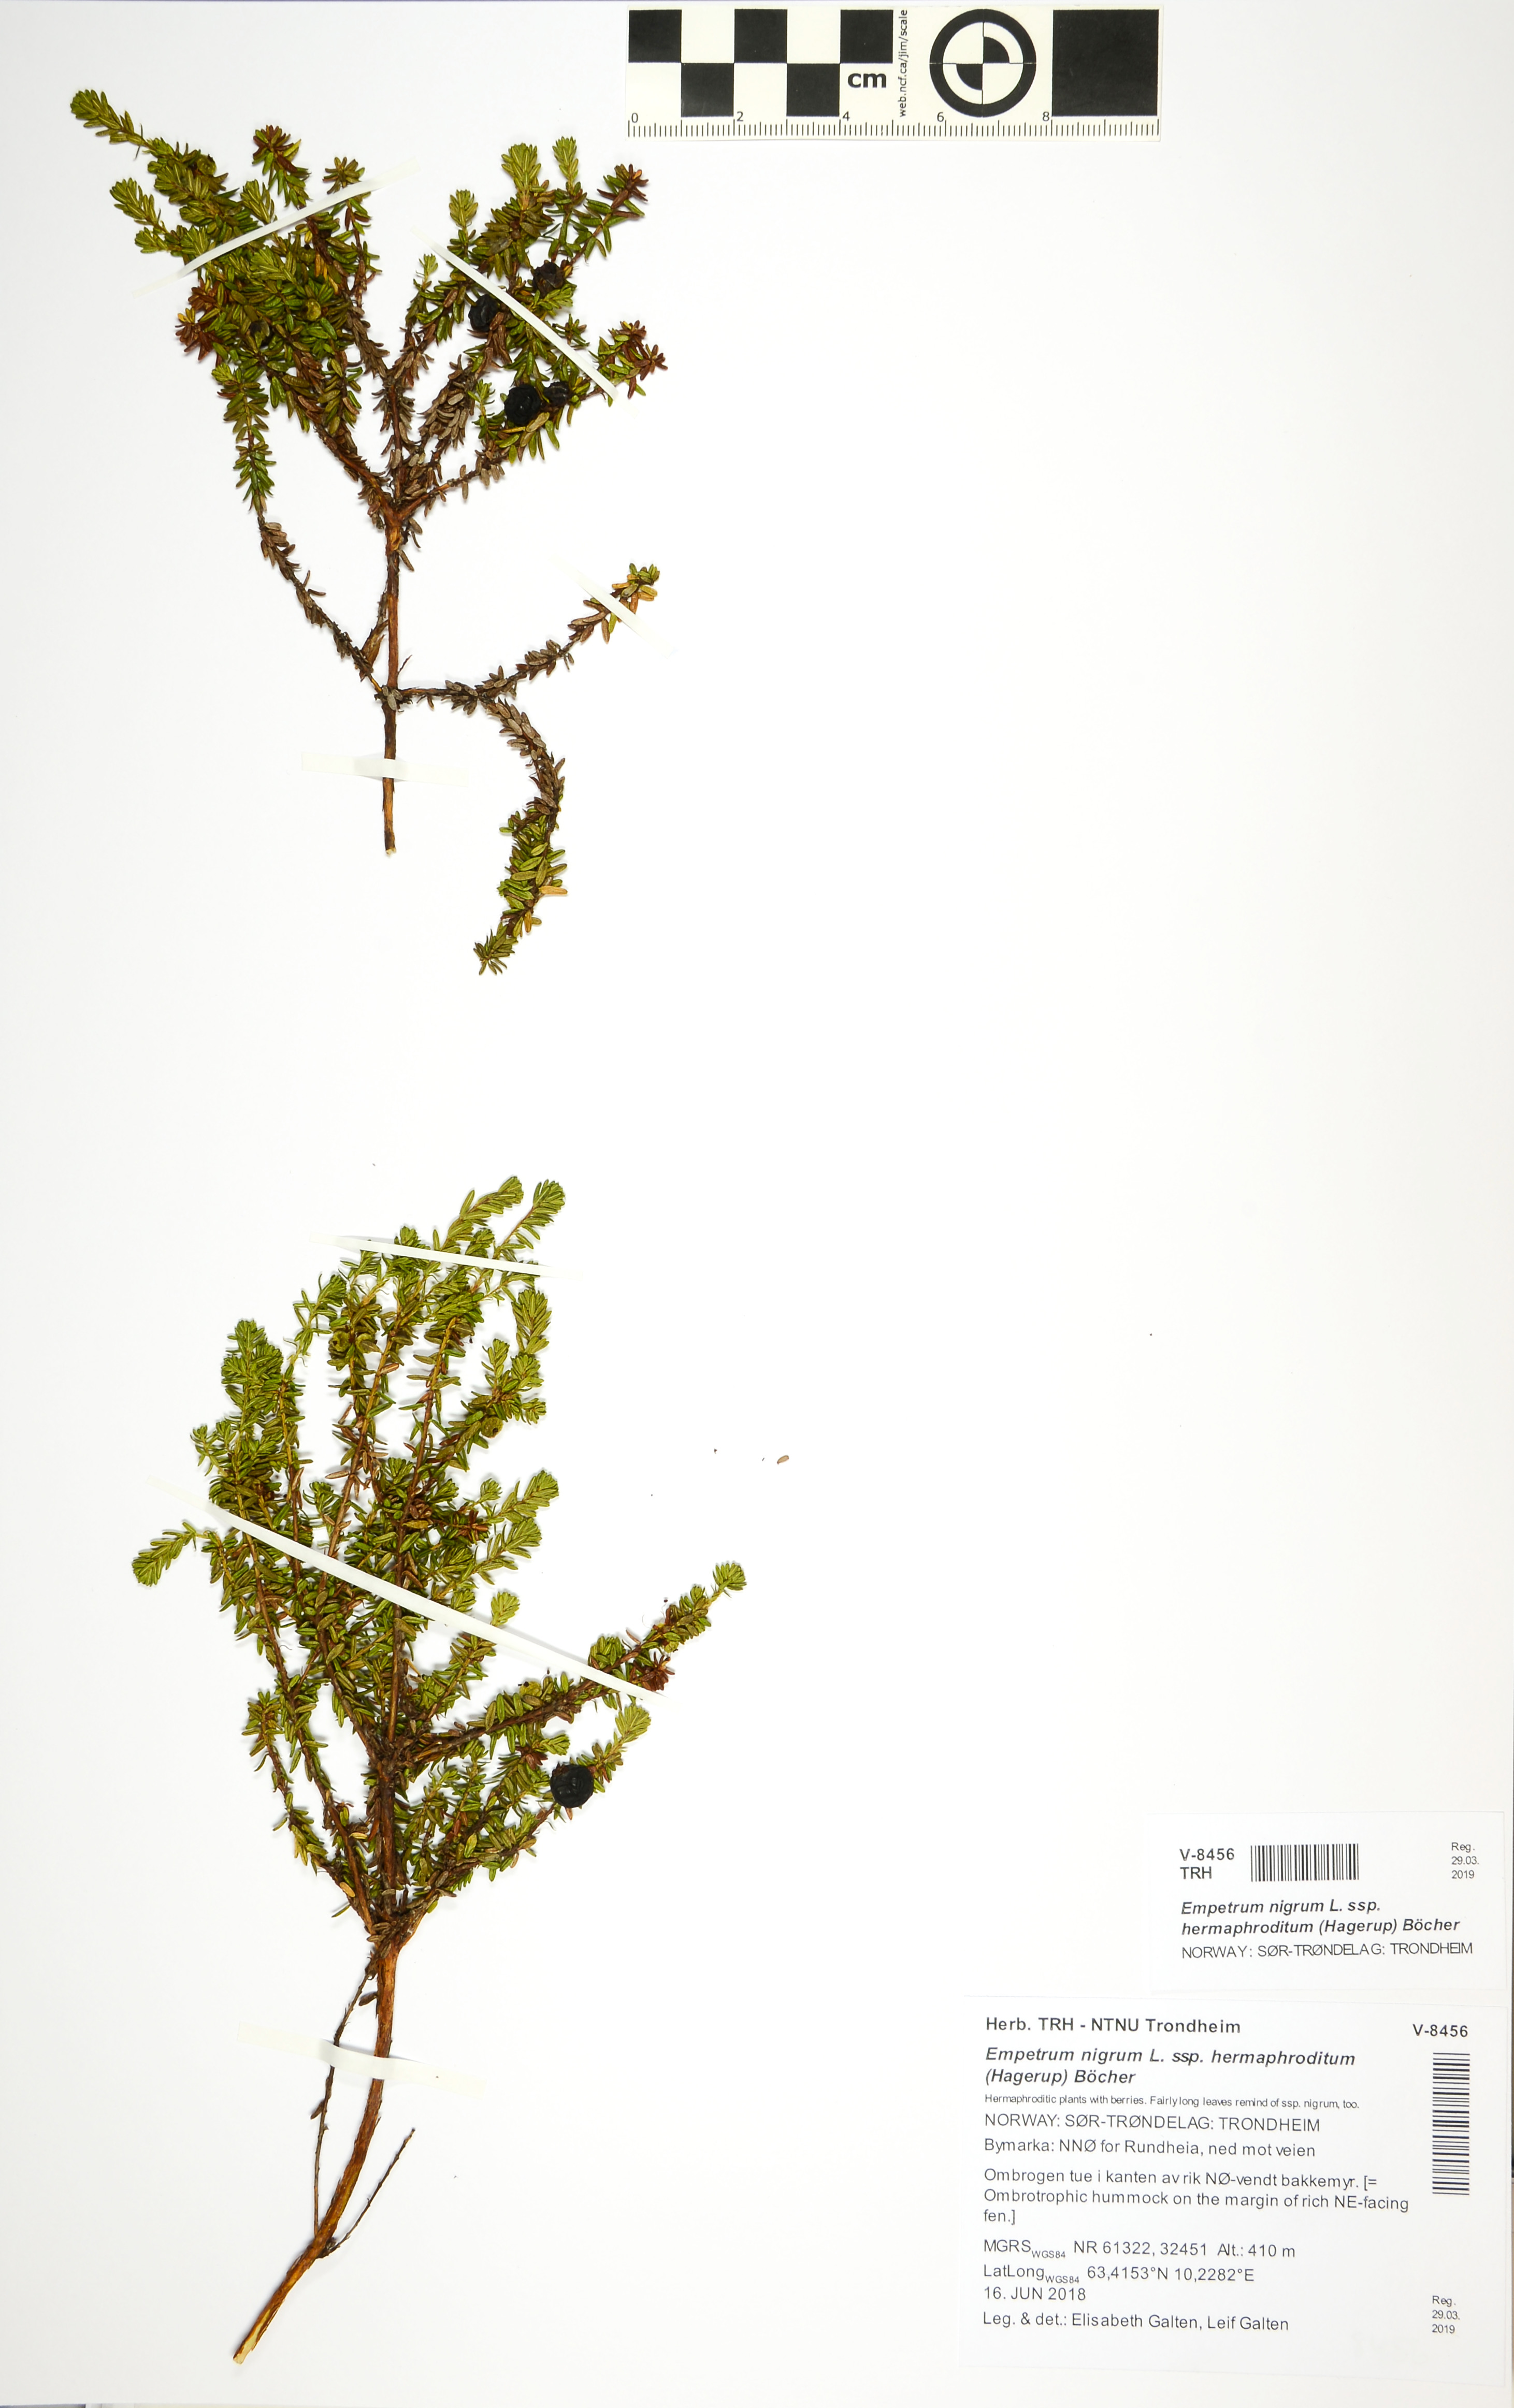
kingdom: Plantae
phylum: Tracheophyta
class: Magnoliopsida
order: Ericales
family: Ericaceae
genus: Empetrum
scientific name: Empetrum hermaphroditum
